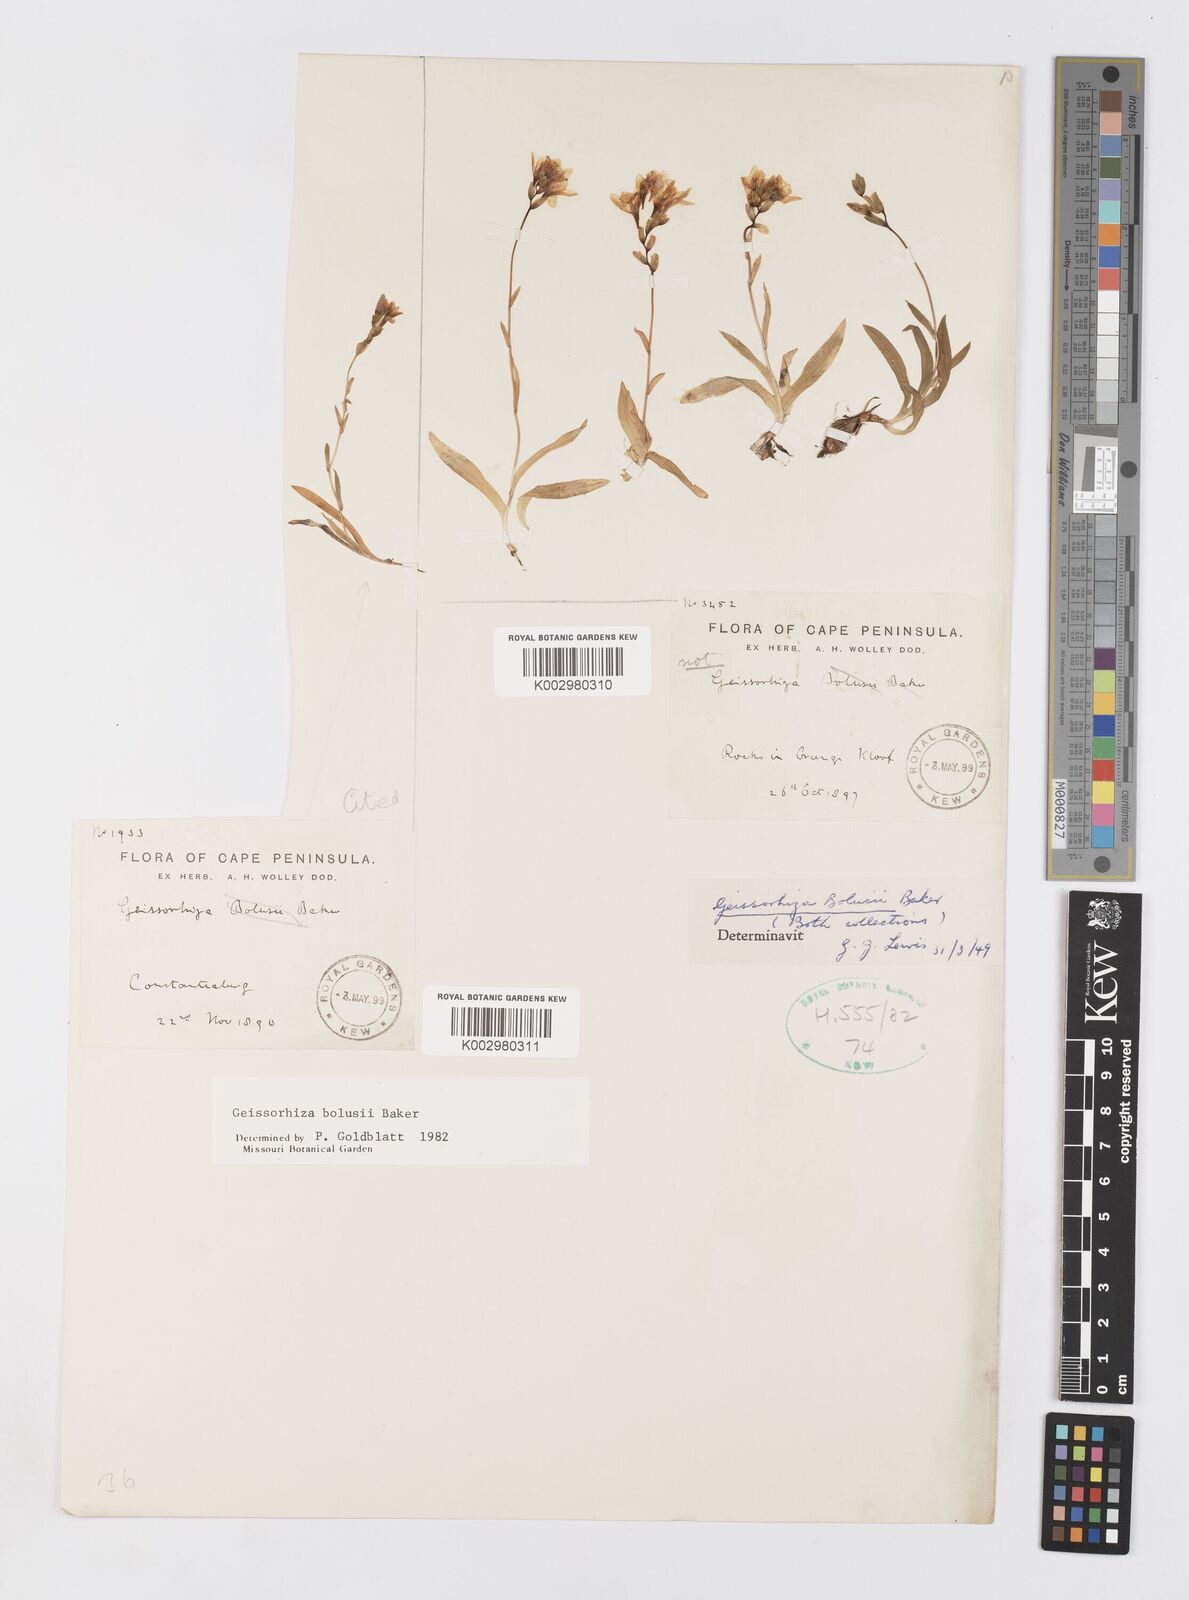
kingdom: Plantae
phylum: Tracheophyta
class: Liliopsida
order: Asparagales
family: Iridaceae
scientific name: Iridaceae
